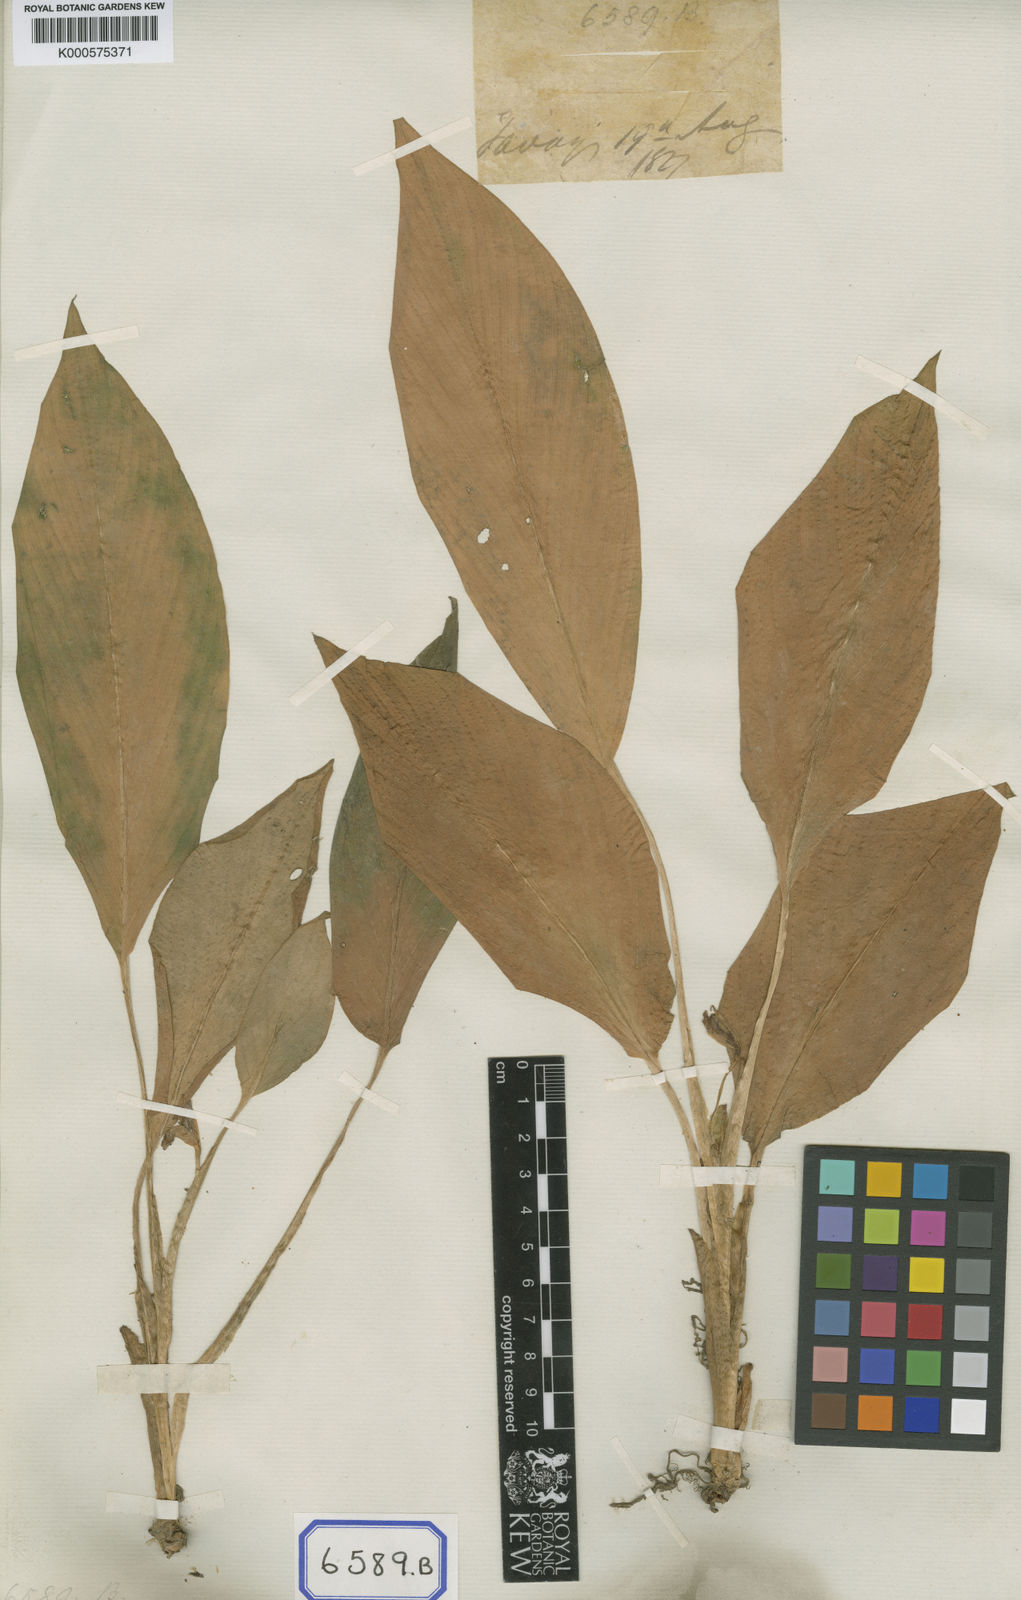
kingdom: Plantae
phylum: Tracheophyta
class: Liliopsida
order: Zingiberales
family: Zingiberaceae
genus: Boesenbergia
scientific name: Boesenbergia longiflora
